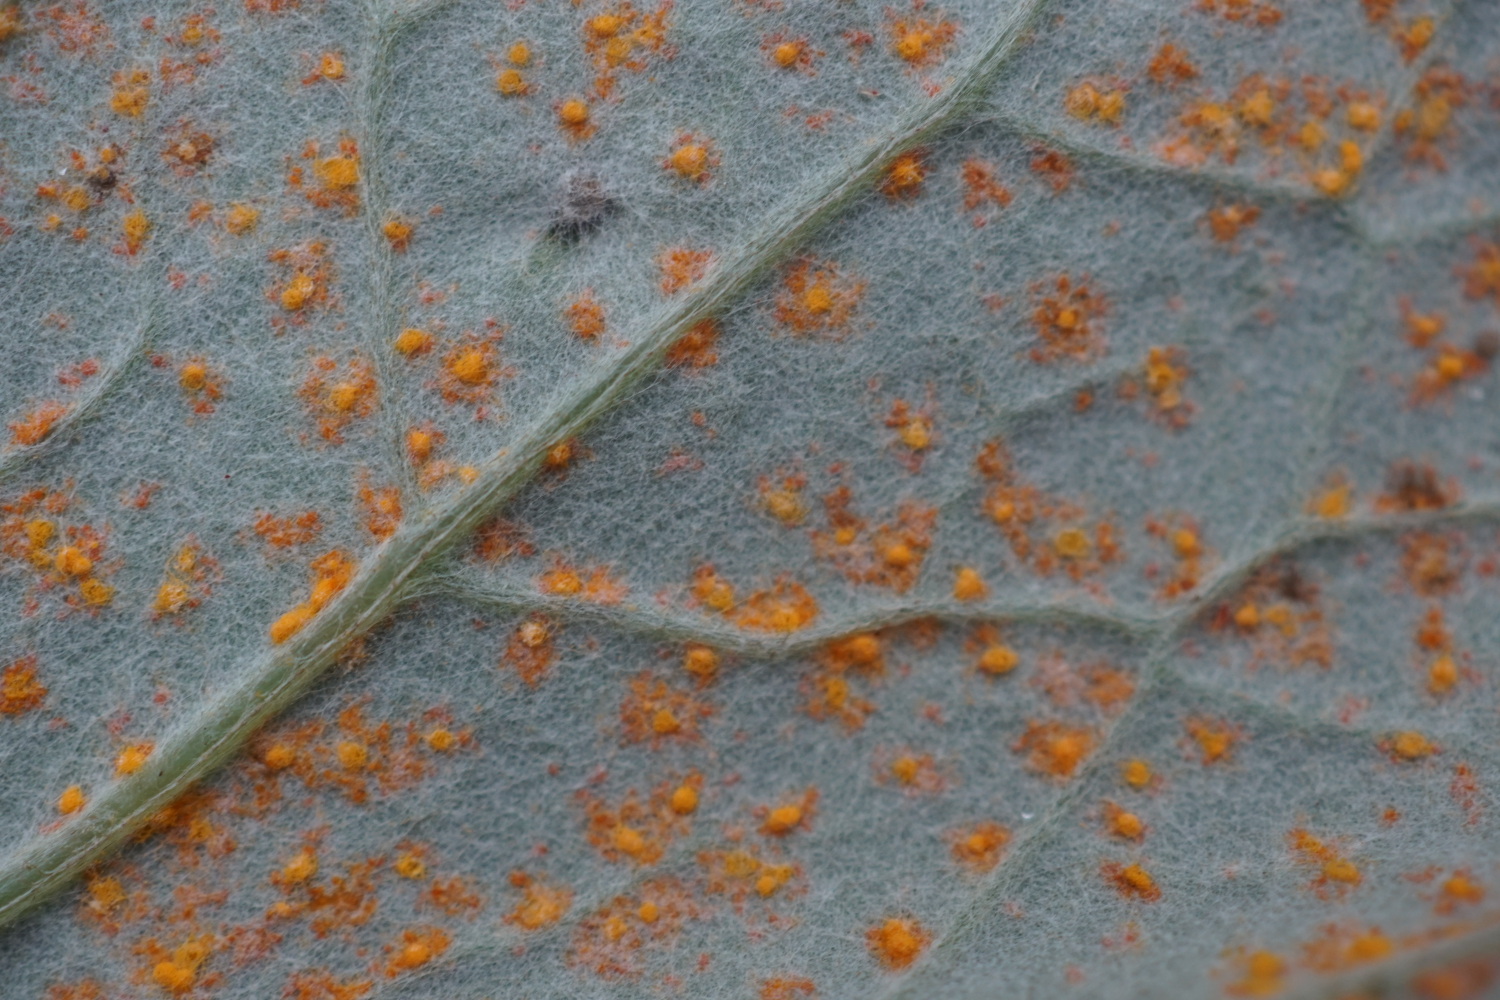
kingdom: Fungi
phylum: Basidiomycota
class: Pucciniomycetes
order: Pucciniales
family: Coleosporiaceae
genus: Coleosporium
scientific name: Coleosporium tussilaginis
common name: almindelig fyrrenålerust
